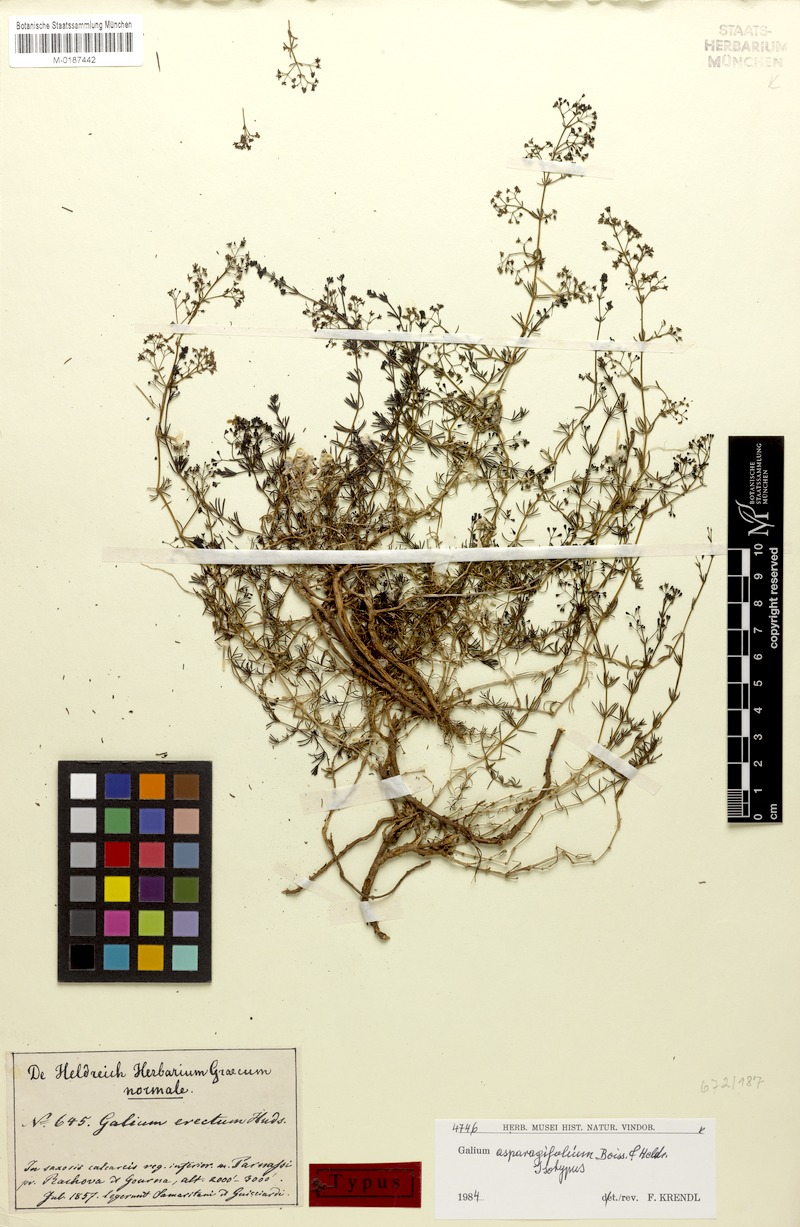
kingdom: Plantae
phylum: Tracheophyta
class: Magnoliopsida
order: Gentianales
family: Rubiaceae
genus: Galium
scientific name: Galium asparagifolium
